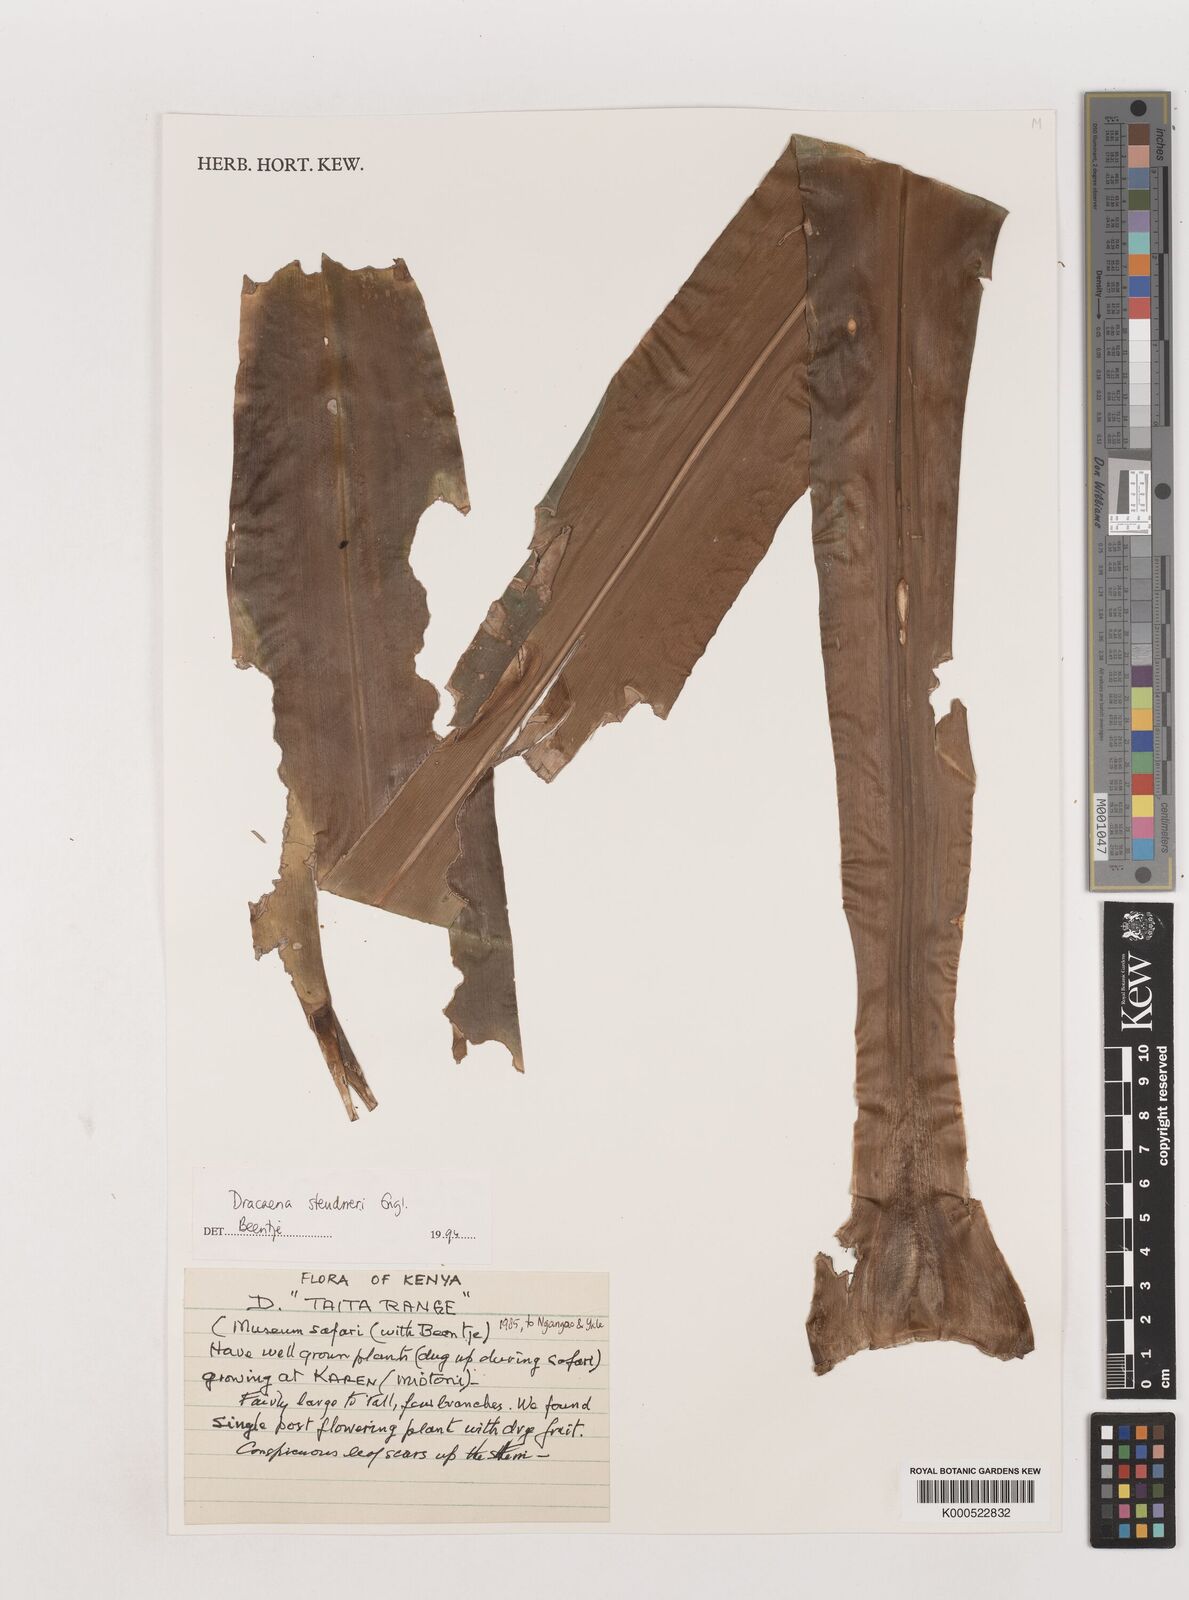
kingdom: Plantae
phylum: Tracheophyta
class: Liliopsida
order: Asparagales
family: Asparagaceae
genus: Dracaena
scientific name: Dracaena steudneri
